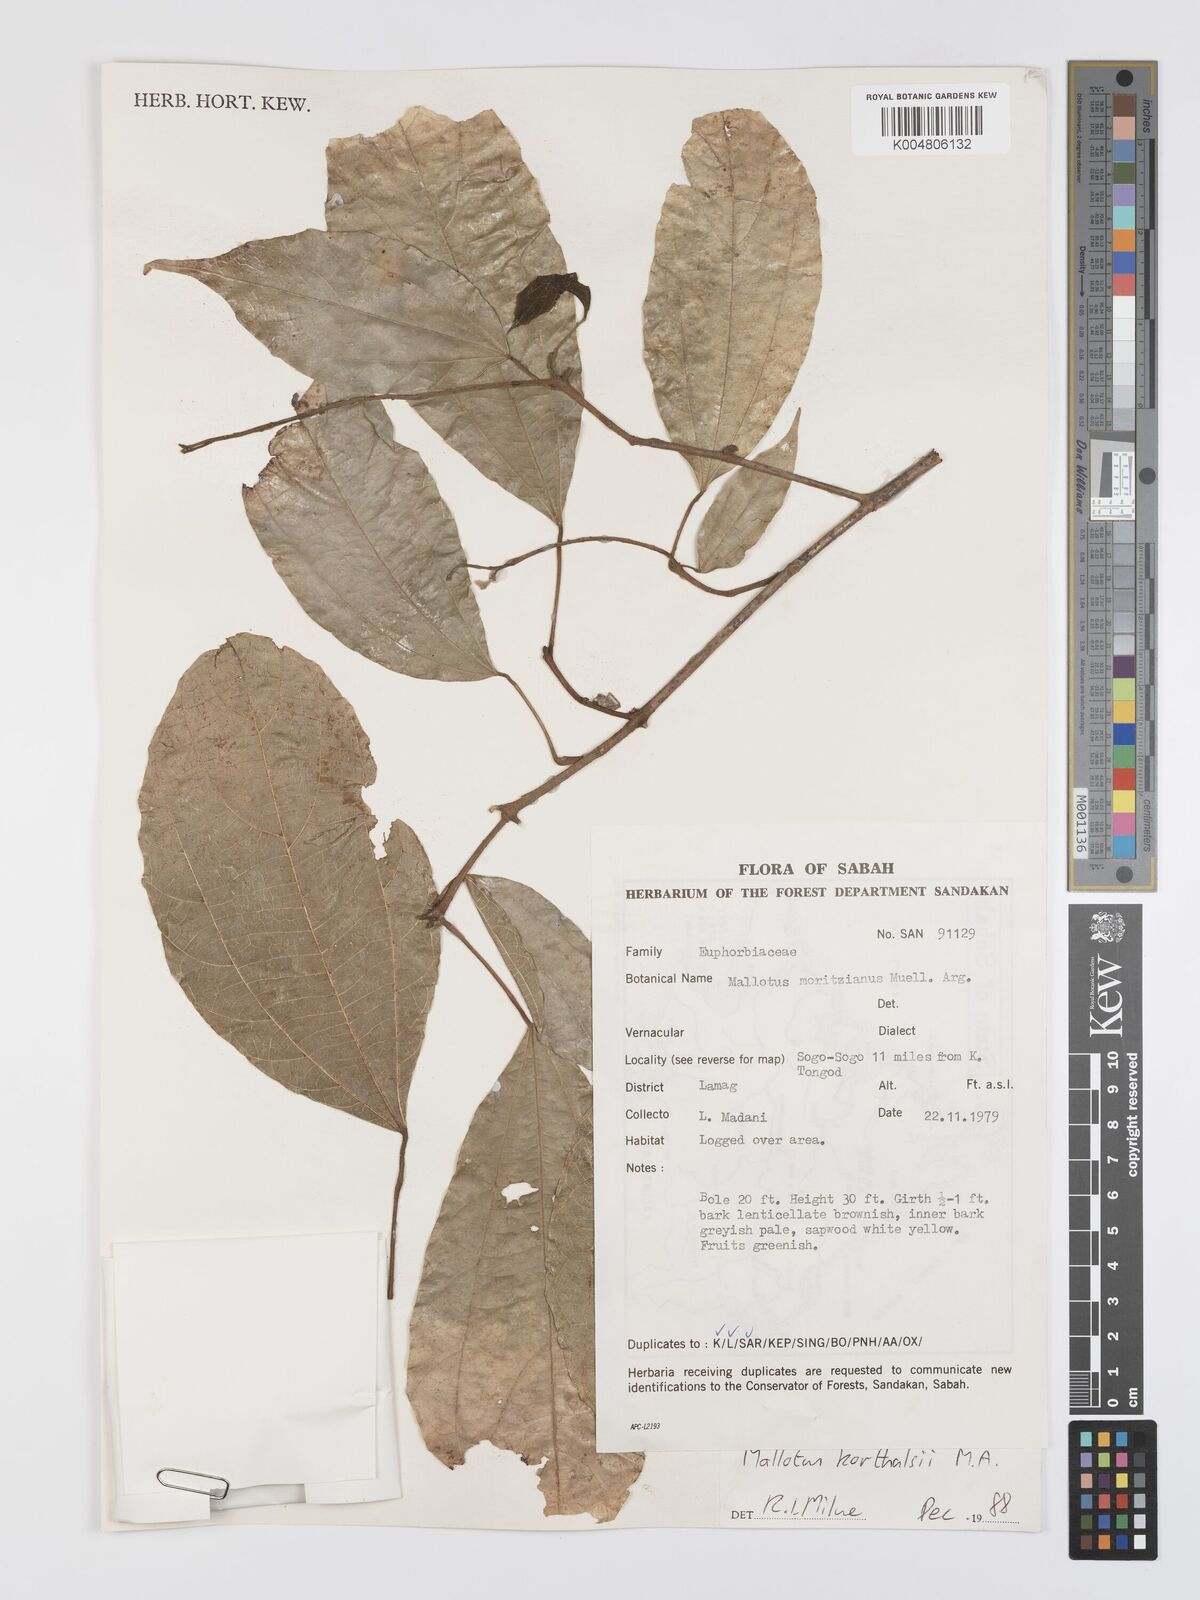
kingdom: Plantae
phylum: Tracheophyta
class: Magnoliopsida
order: Malpighiales
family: Euphorbiaceae
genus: Mallotus
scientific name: Mallotus korthalsii
